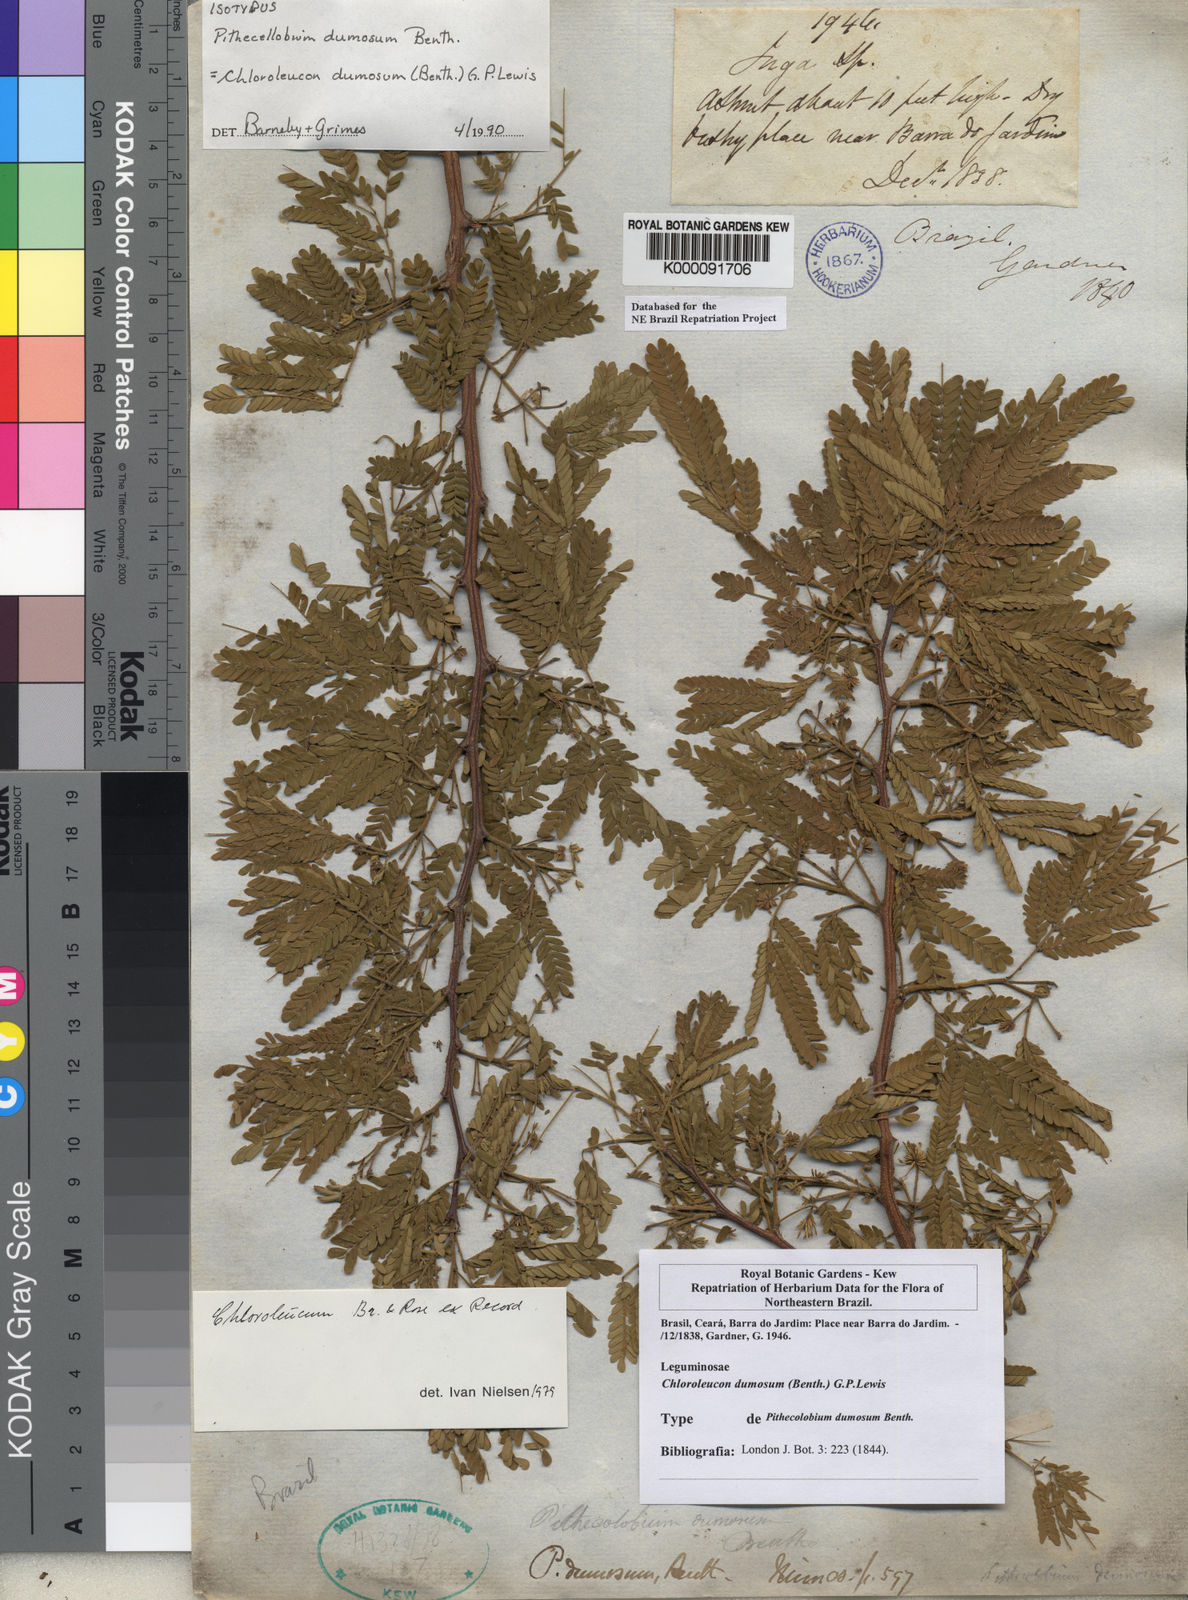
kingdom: Plantae
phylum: Tracheophyta
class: Magnoliopsida
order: Fabales
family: Fabaceae
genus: Chloroleucon
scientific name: Chloroleucon dumosum
